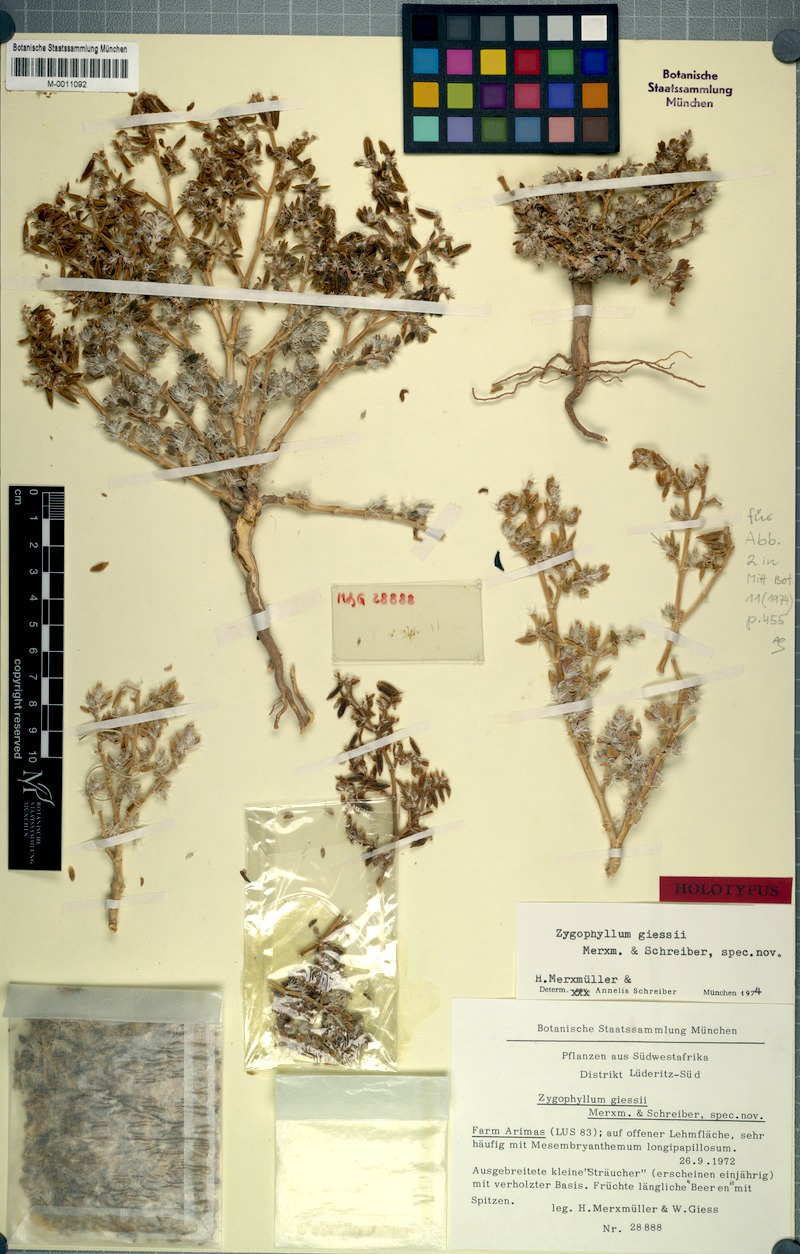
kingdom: Plantae
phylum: Tracheophyta
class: Magnoliopsida
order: Zygophyllales
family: Zygophyllaceae
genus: Tetraena
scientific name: Tetraena giessii
